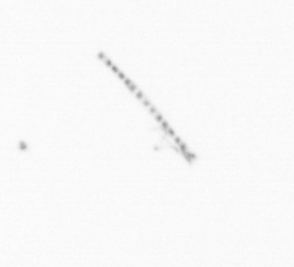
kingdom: Chromista
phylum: Ochrophyta
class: Bacillariophyceae
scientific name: Bacillariophyceae
